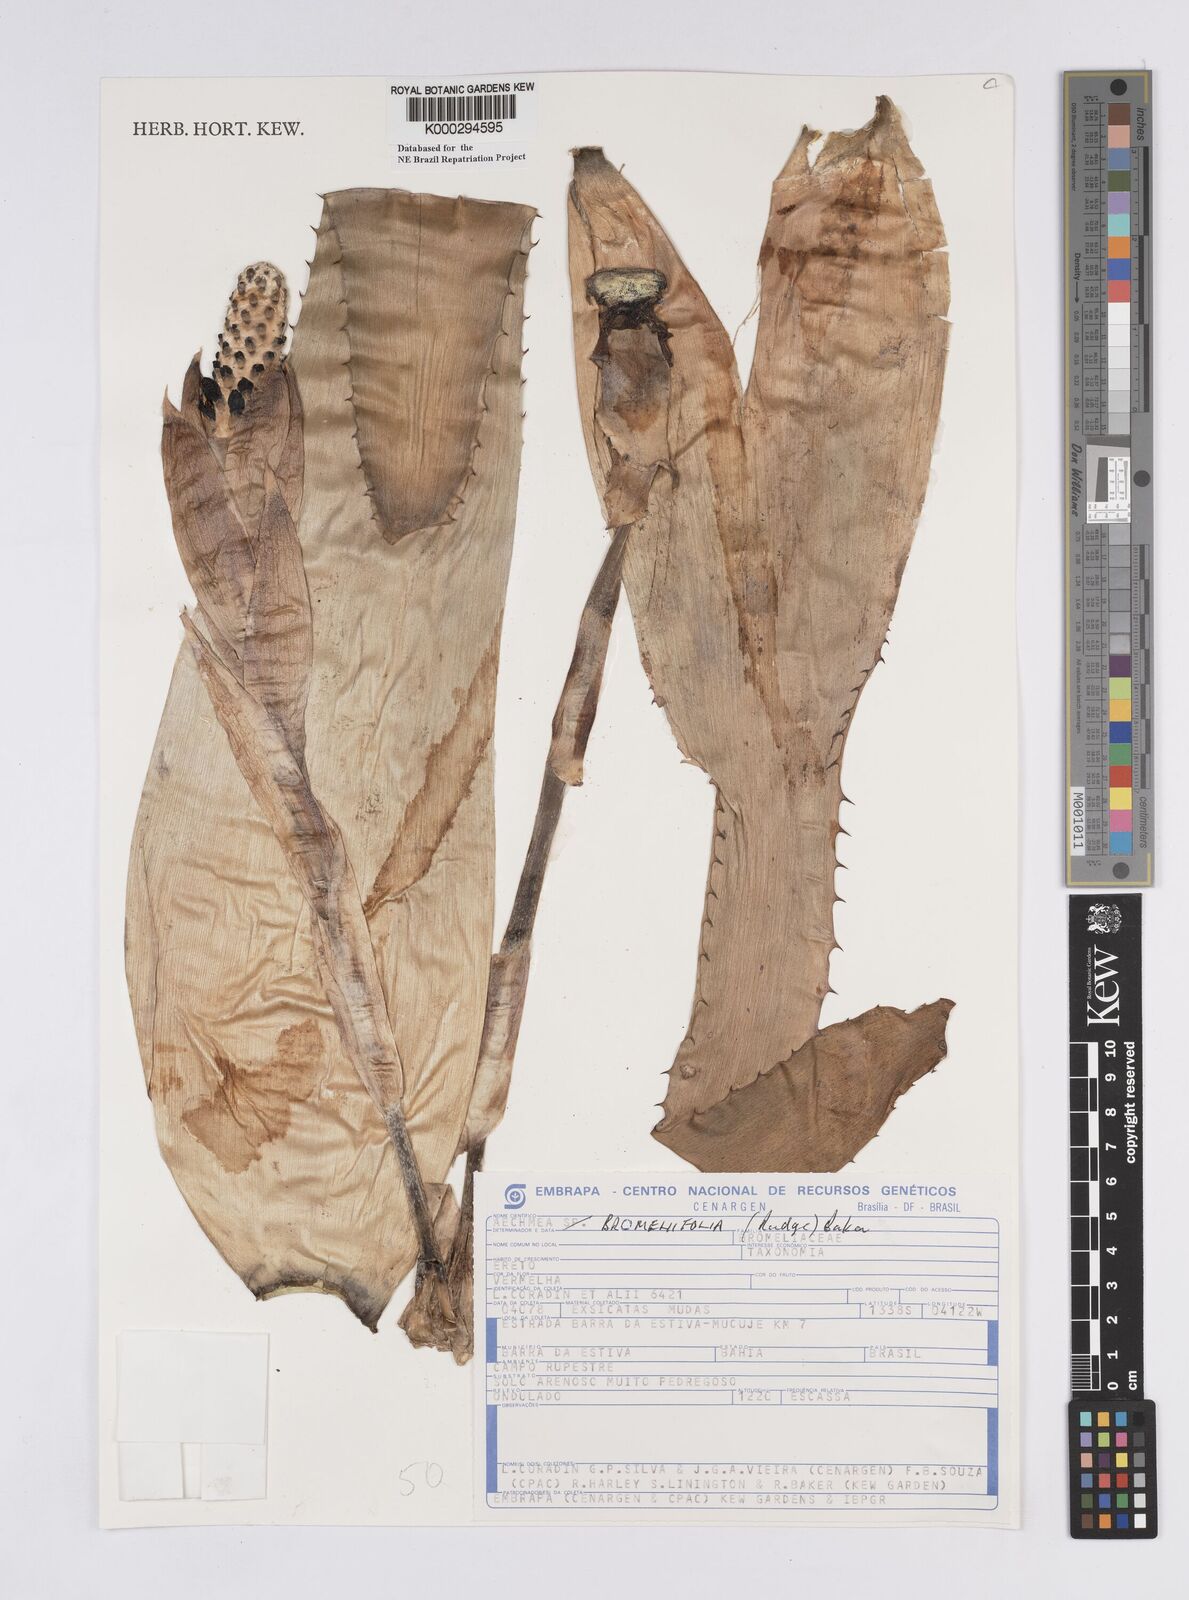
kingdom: Plantae
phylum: Tracheophyta
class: Liliopsida
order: Poales
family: Bromeliaceae
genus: Aechmea
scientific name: Aechmea
